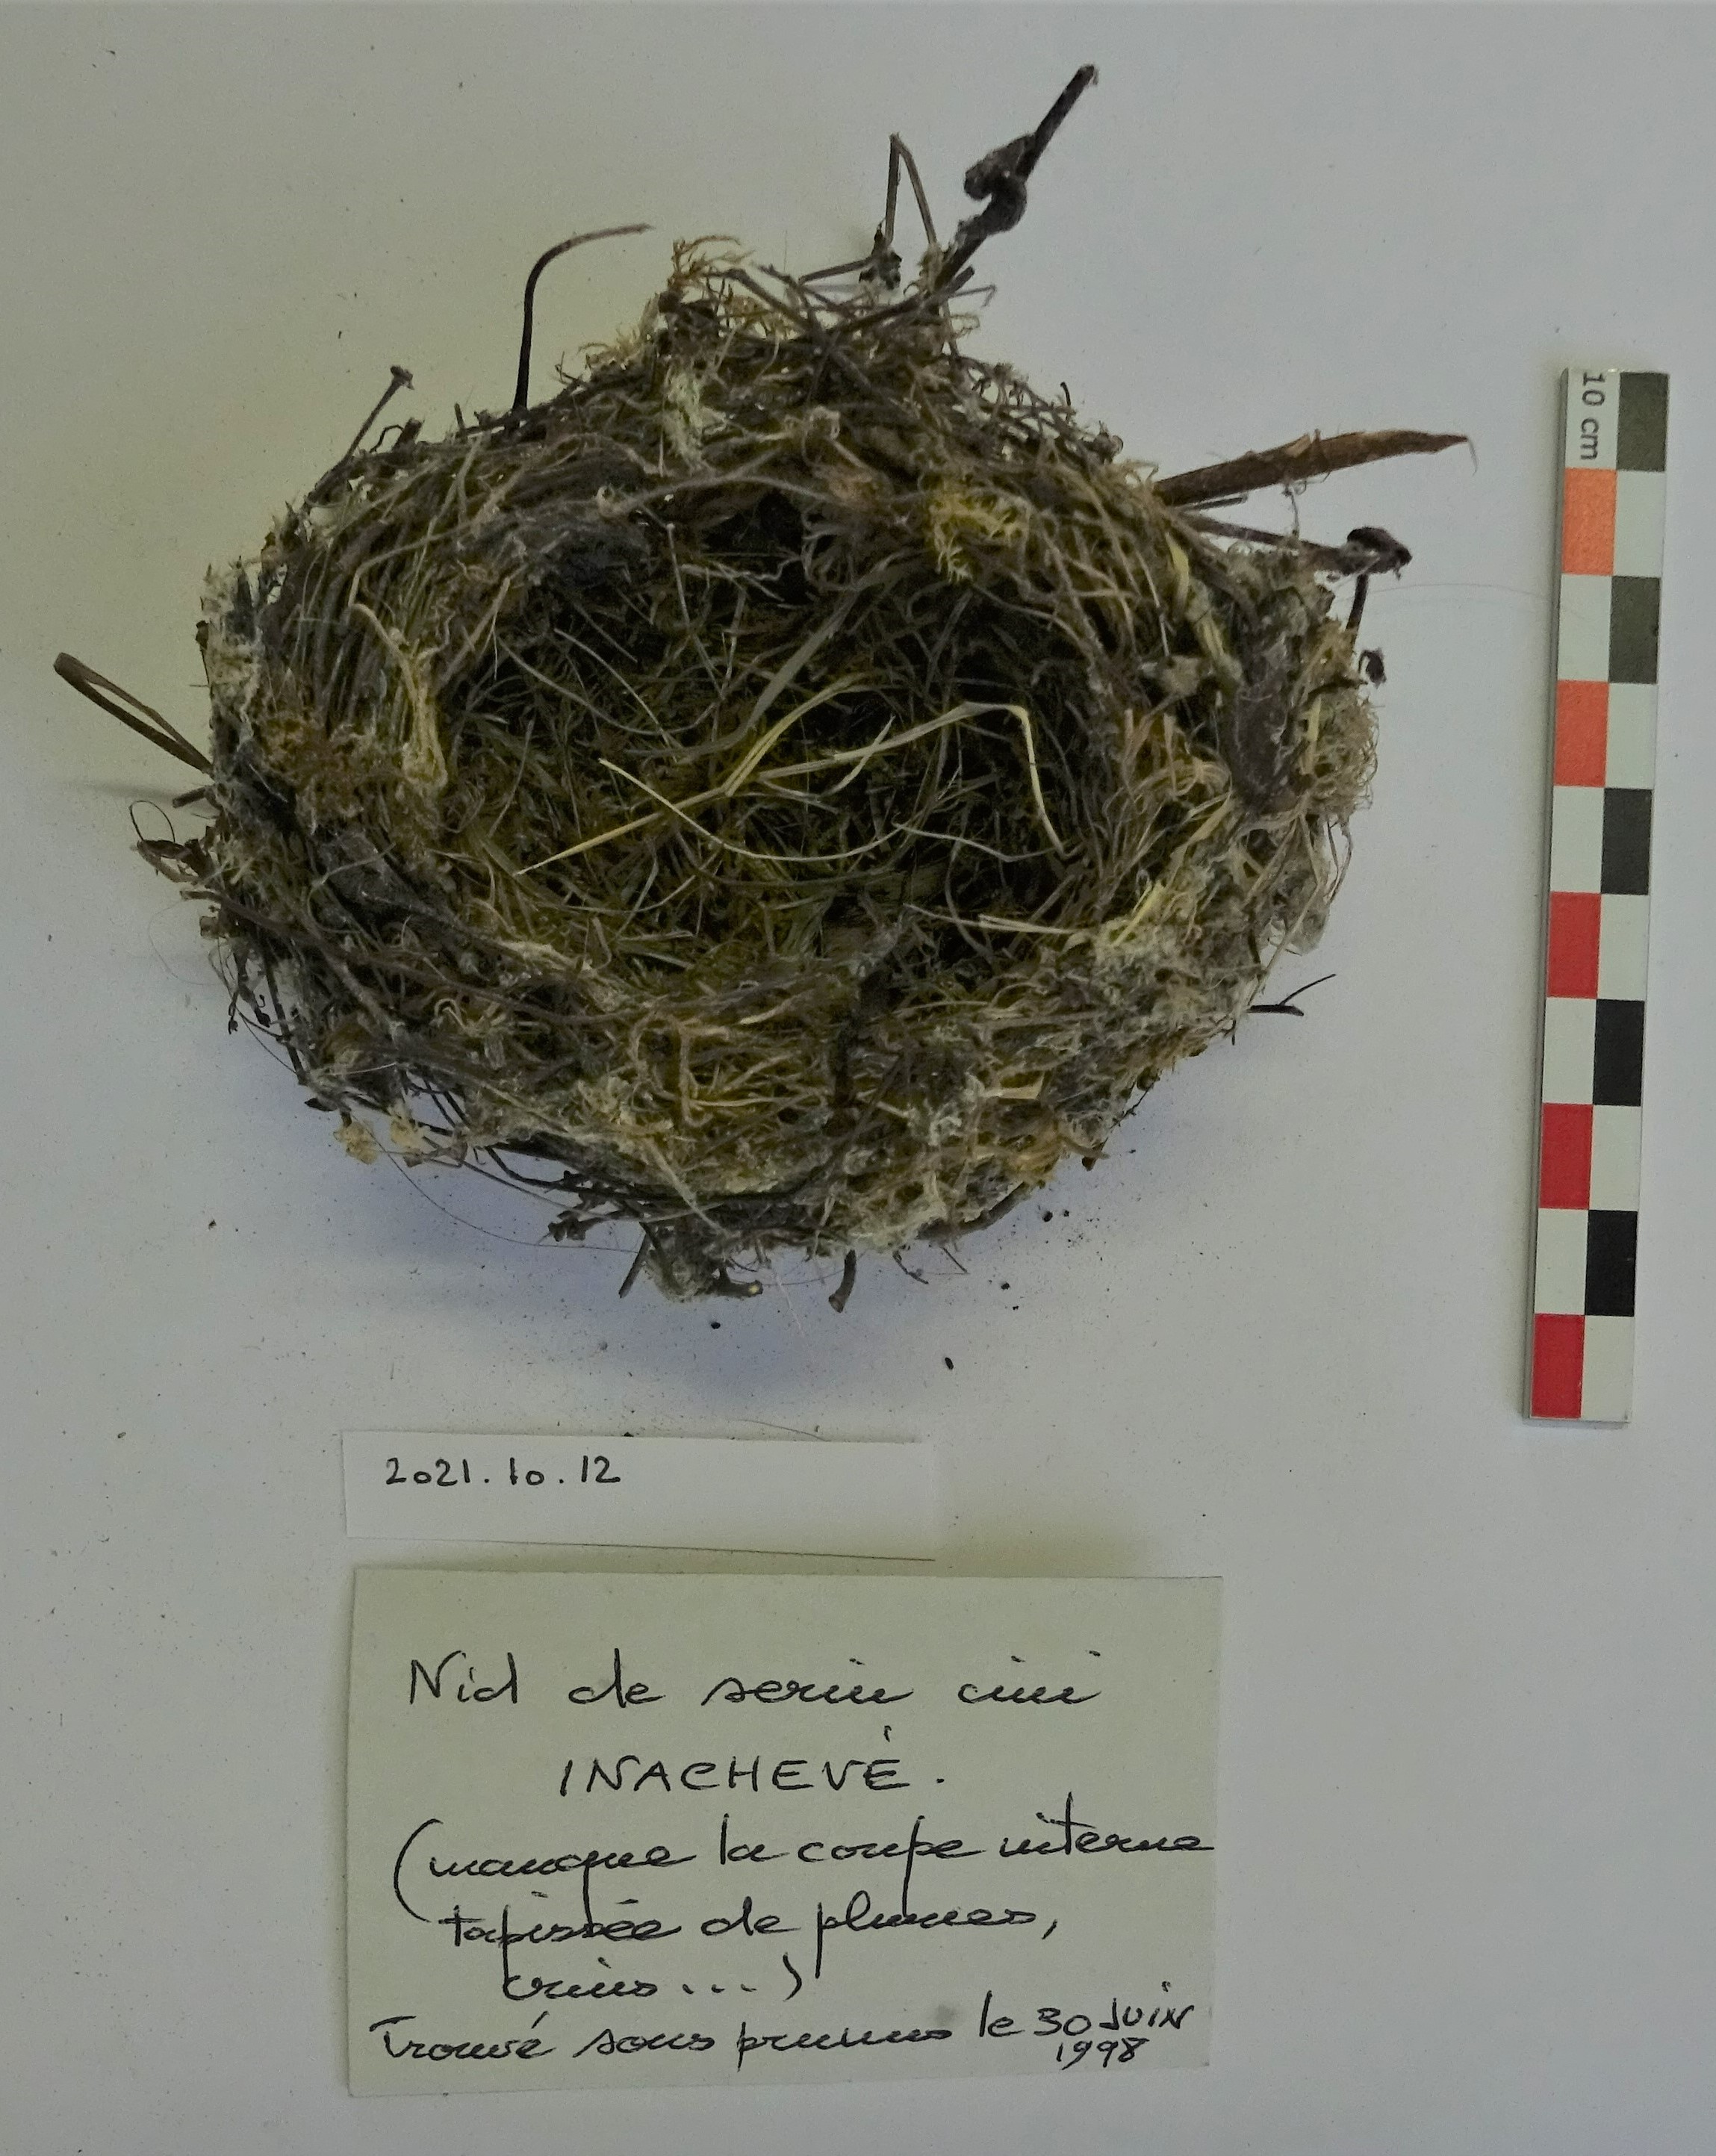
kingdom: Animalia
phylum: Chordata
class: Aves
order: Passeriformes
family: Fringillidae
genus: Serinus
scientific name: Serinus serinus
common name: European serin
